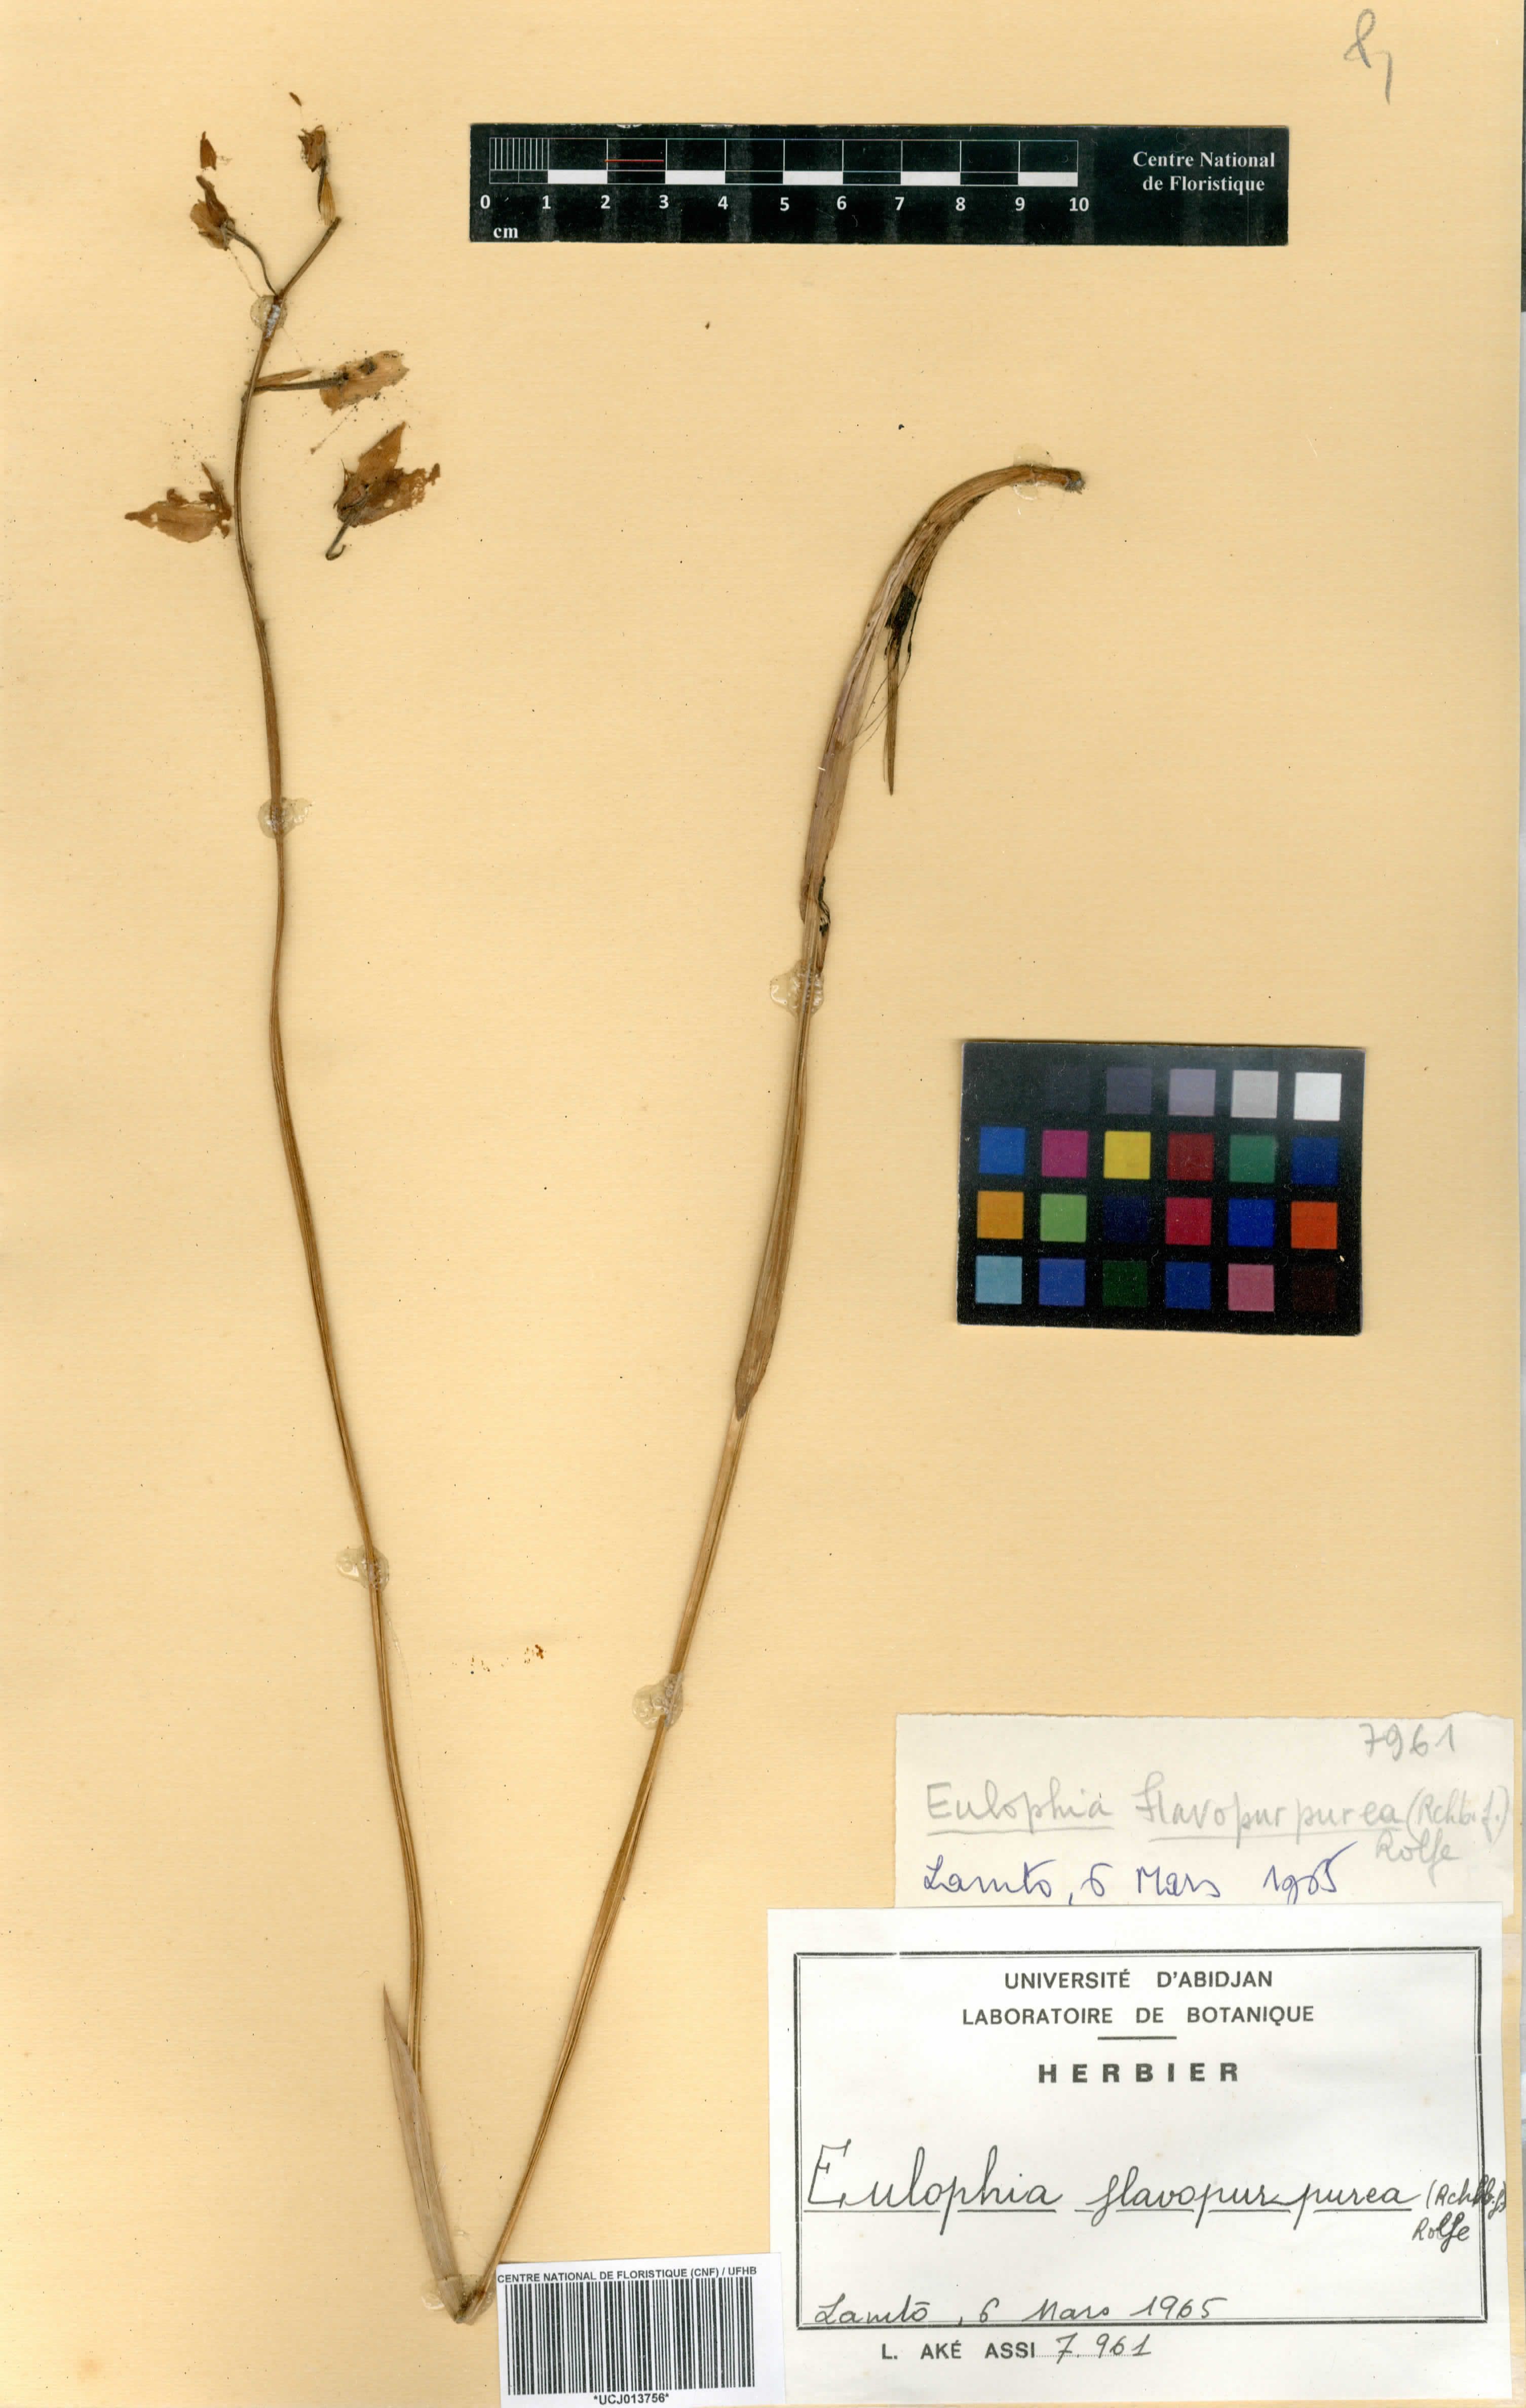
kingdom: Plantae
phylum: Tracheophyta
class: Liliopsida
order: Asparagales
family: Orchidaceae
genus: Eulophia
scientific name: Eulophia flavopurpurea
